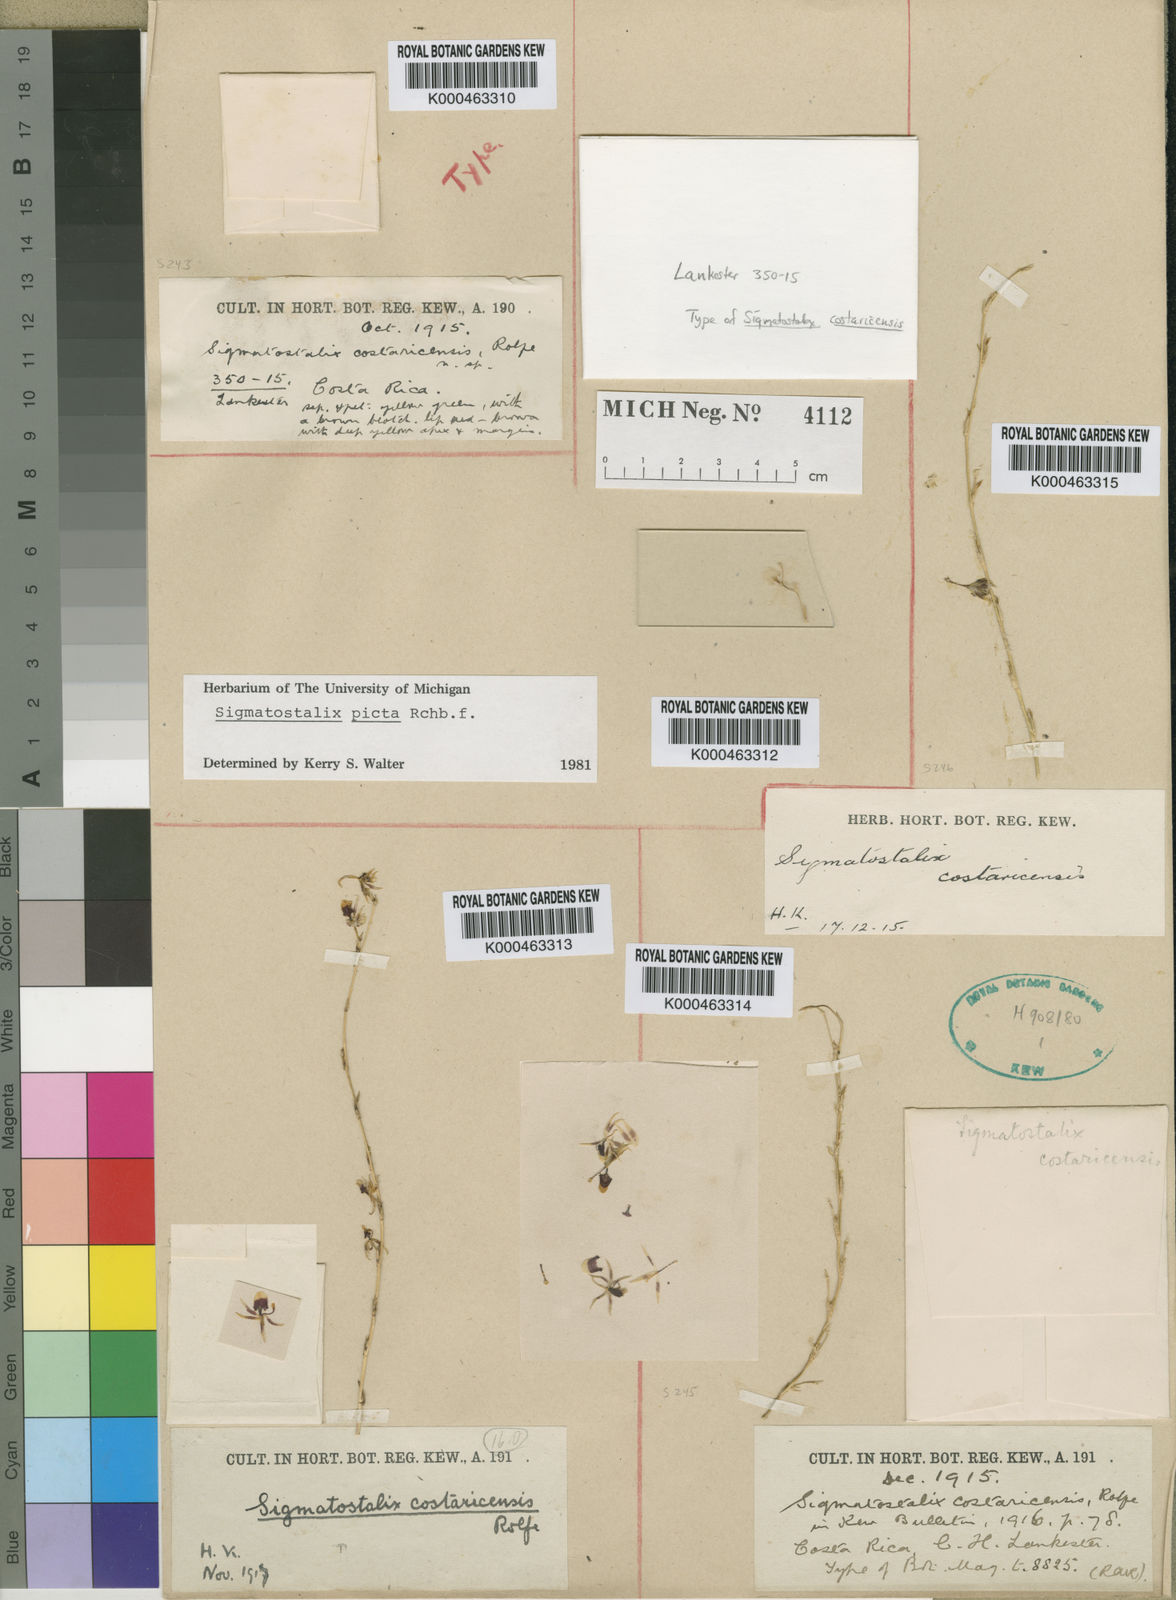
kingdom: Plantae
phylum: Tracheophyta
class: Liliopsida
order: Asparagales
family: Orchidaceae
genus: Oncidium
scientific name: Oncidium poikilostalix
